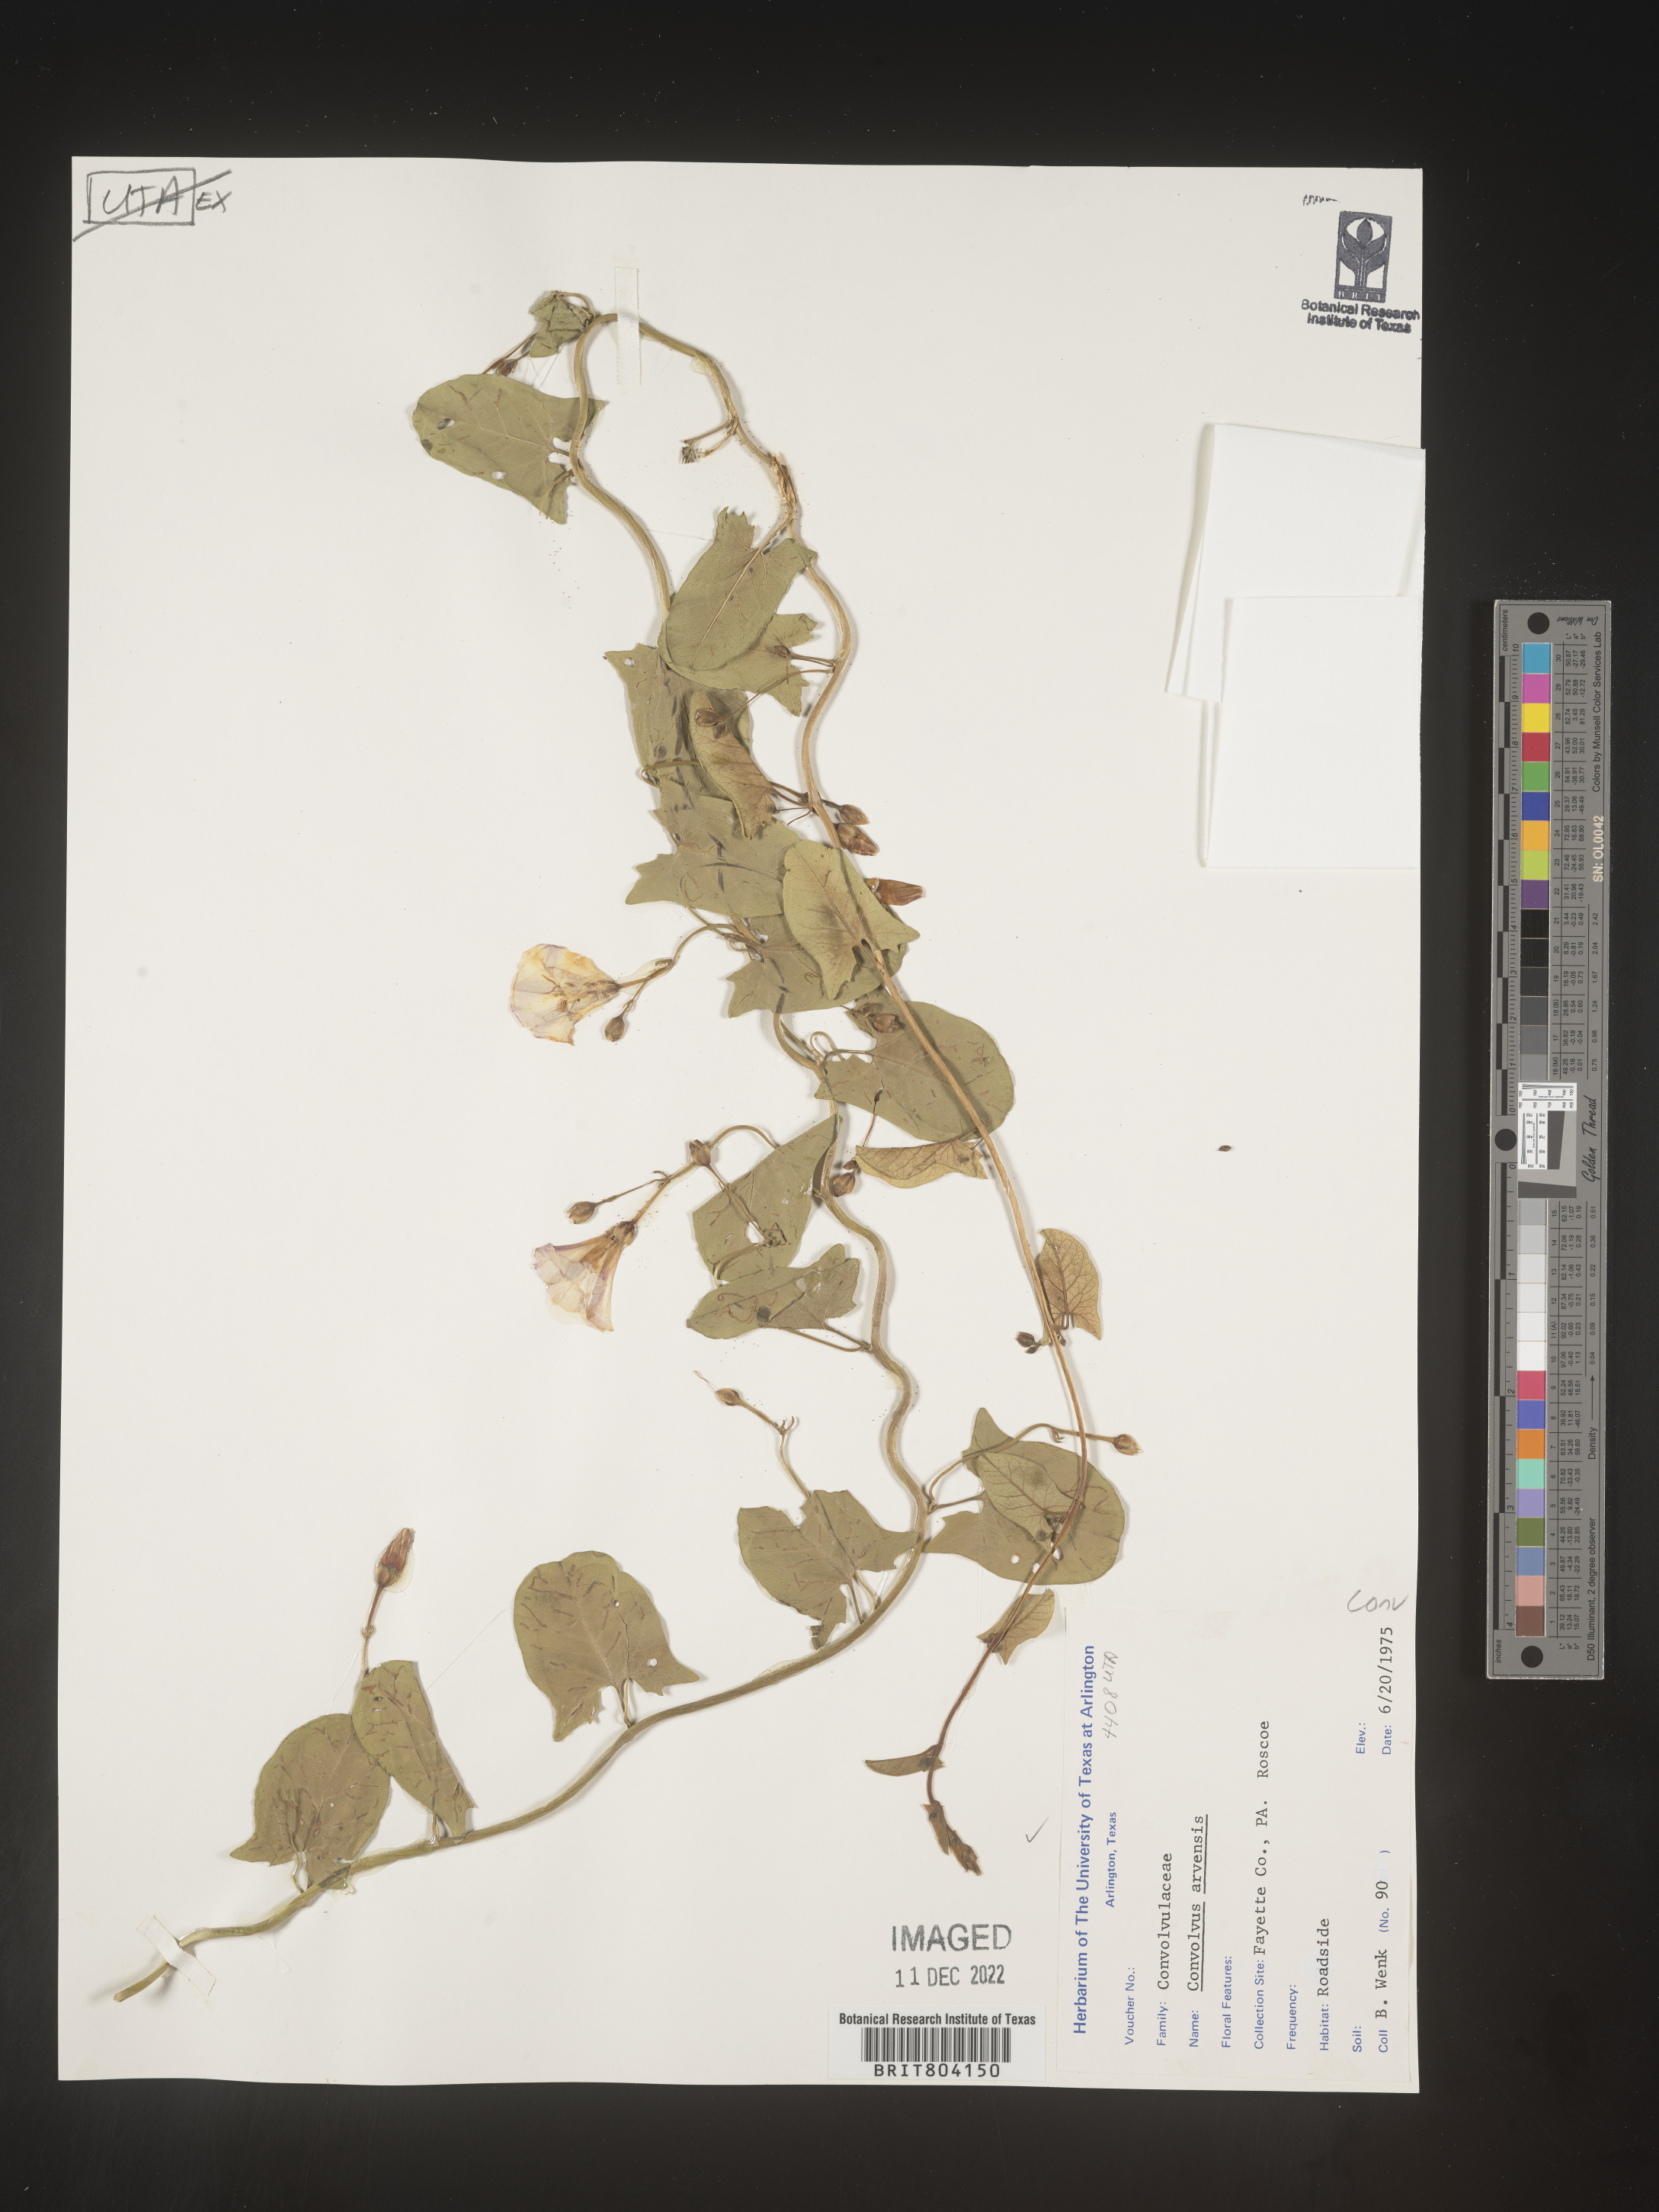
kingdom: Plantae
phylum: Tracheophyta
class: Magnoliopsida
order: Solanales
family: Convolvulaceae
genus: Convolvulus
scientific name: Convolvulus arvensis
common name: Field bindweed
